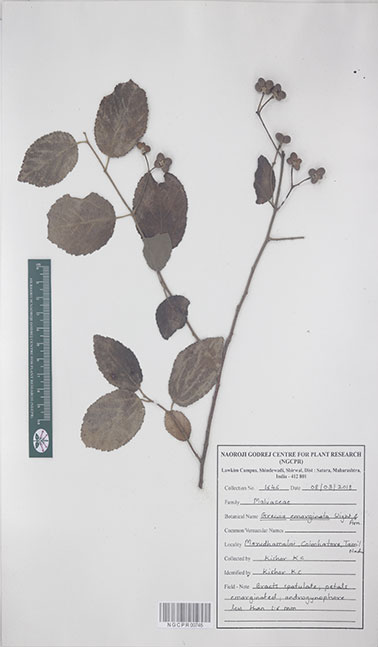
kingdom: Plantae
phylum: Tracheophyta
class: Magnoliopsida
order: Malvales
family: Malvaceae
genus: Grewia
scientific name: Grewia oppositifolia
